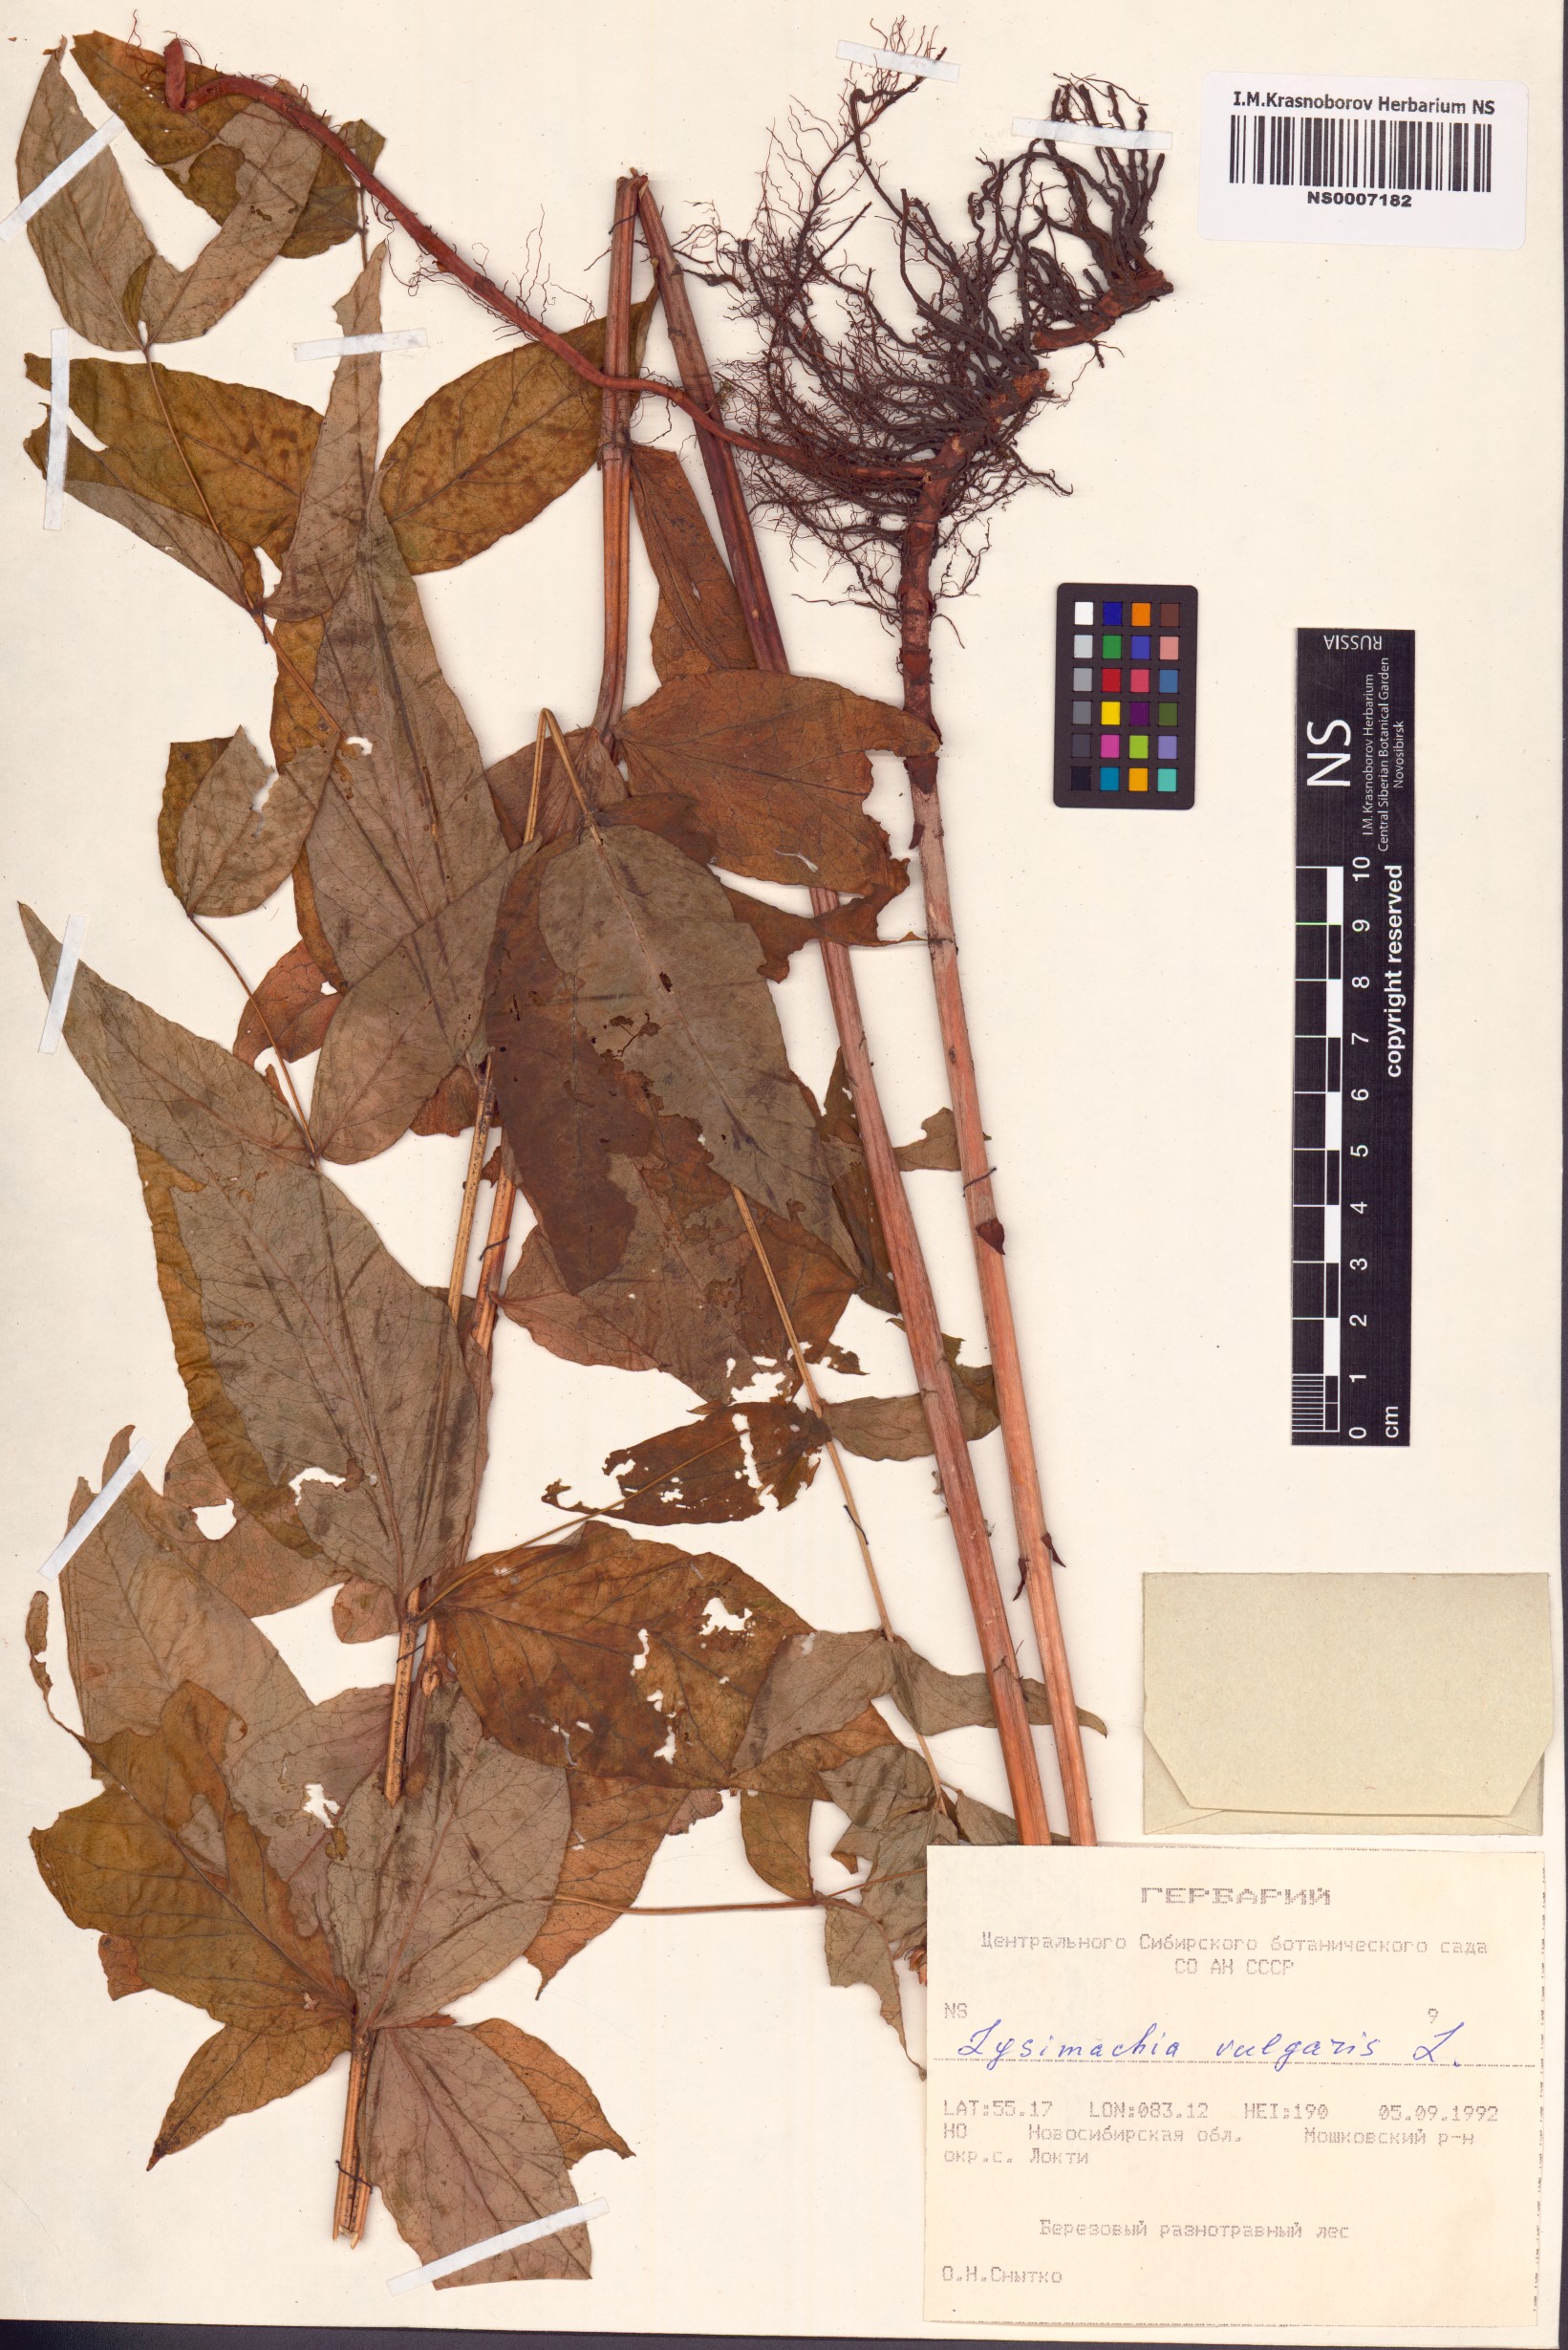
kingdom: Plantae
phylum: Tracheophyta
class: Magnoliopsida
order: Ericales
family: Primulaceae
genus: Lysimachia
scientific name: Lysimachia vulgaris
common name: Yellow loosestrife
